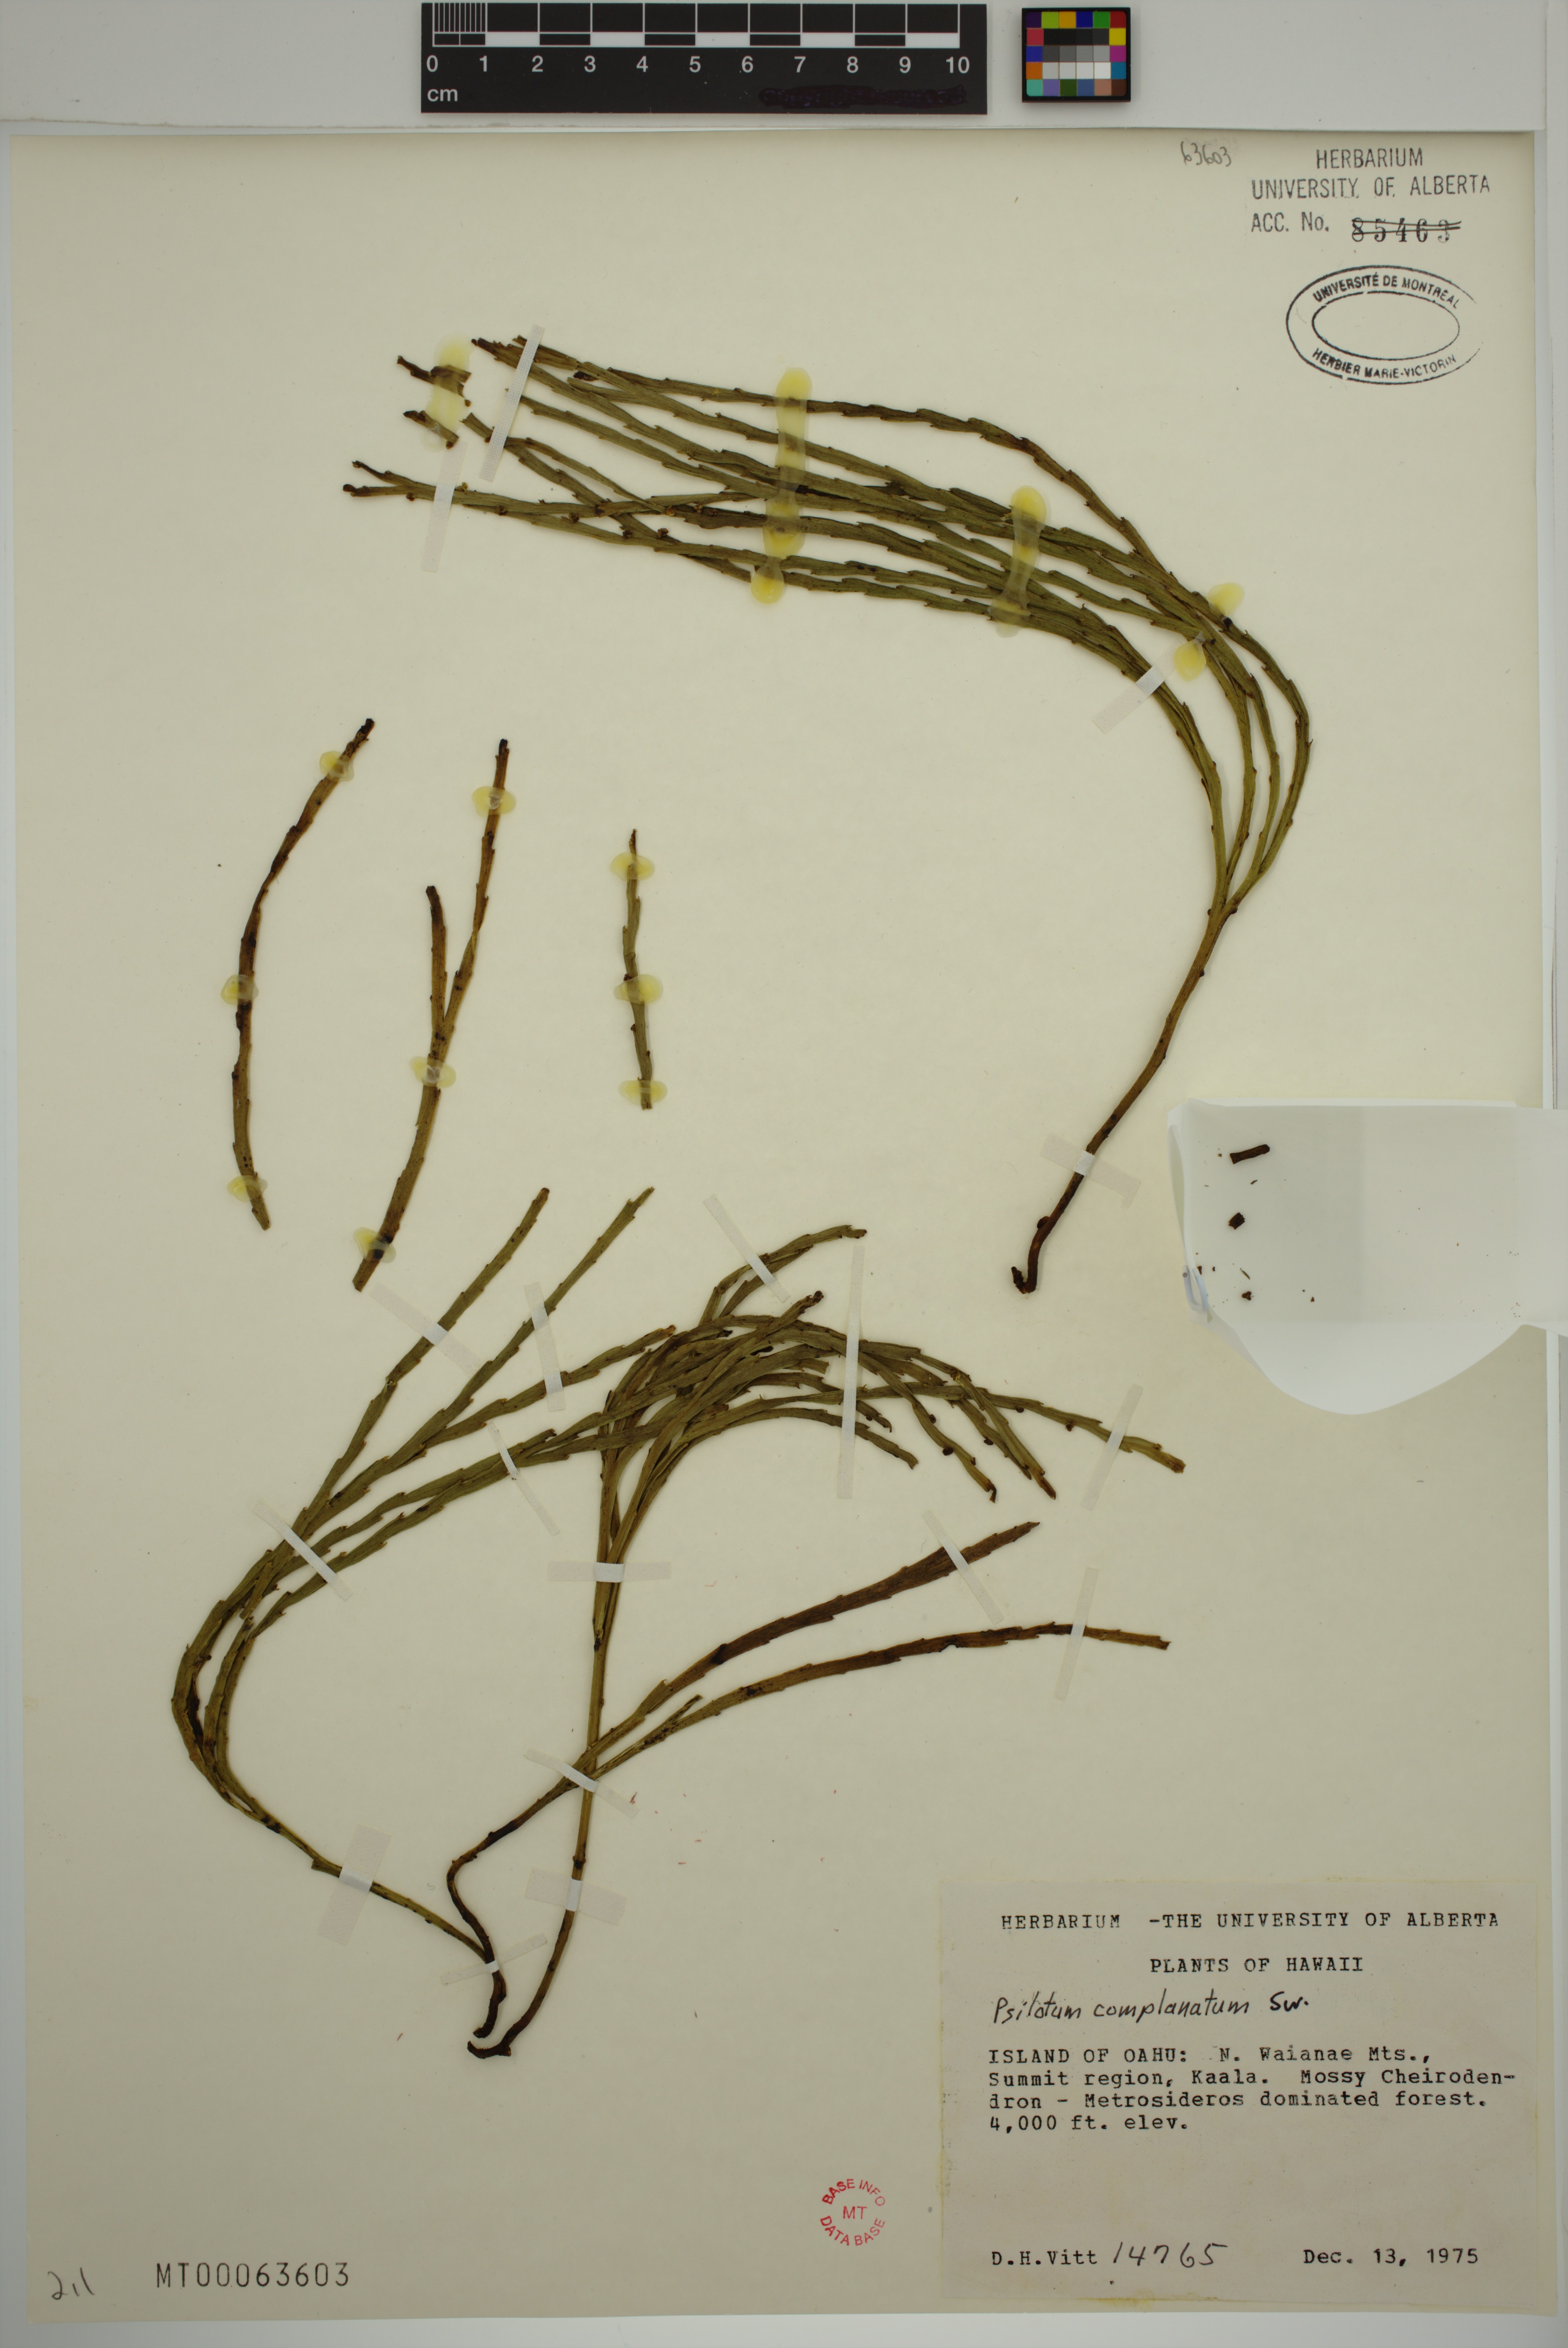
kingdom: Plantae
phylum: Tracheophyta
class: Polypodiopsida
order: Psilotales
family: Psilotaceae
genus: Psilotum
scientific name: Psilotum complanatum
